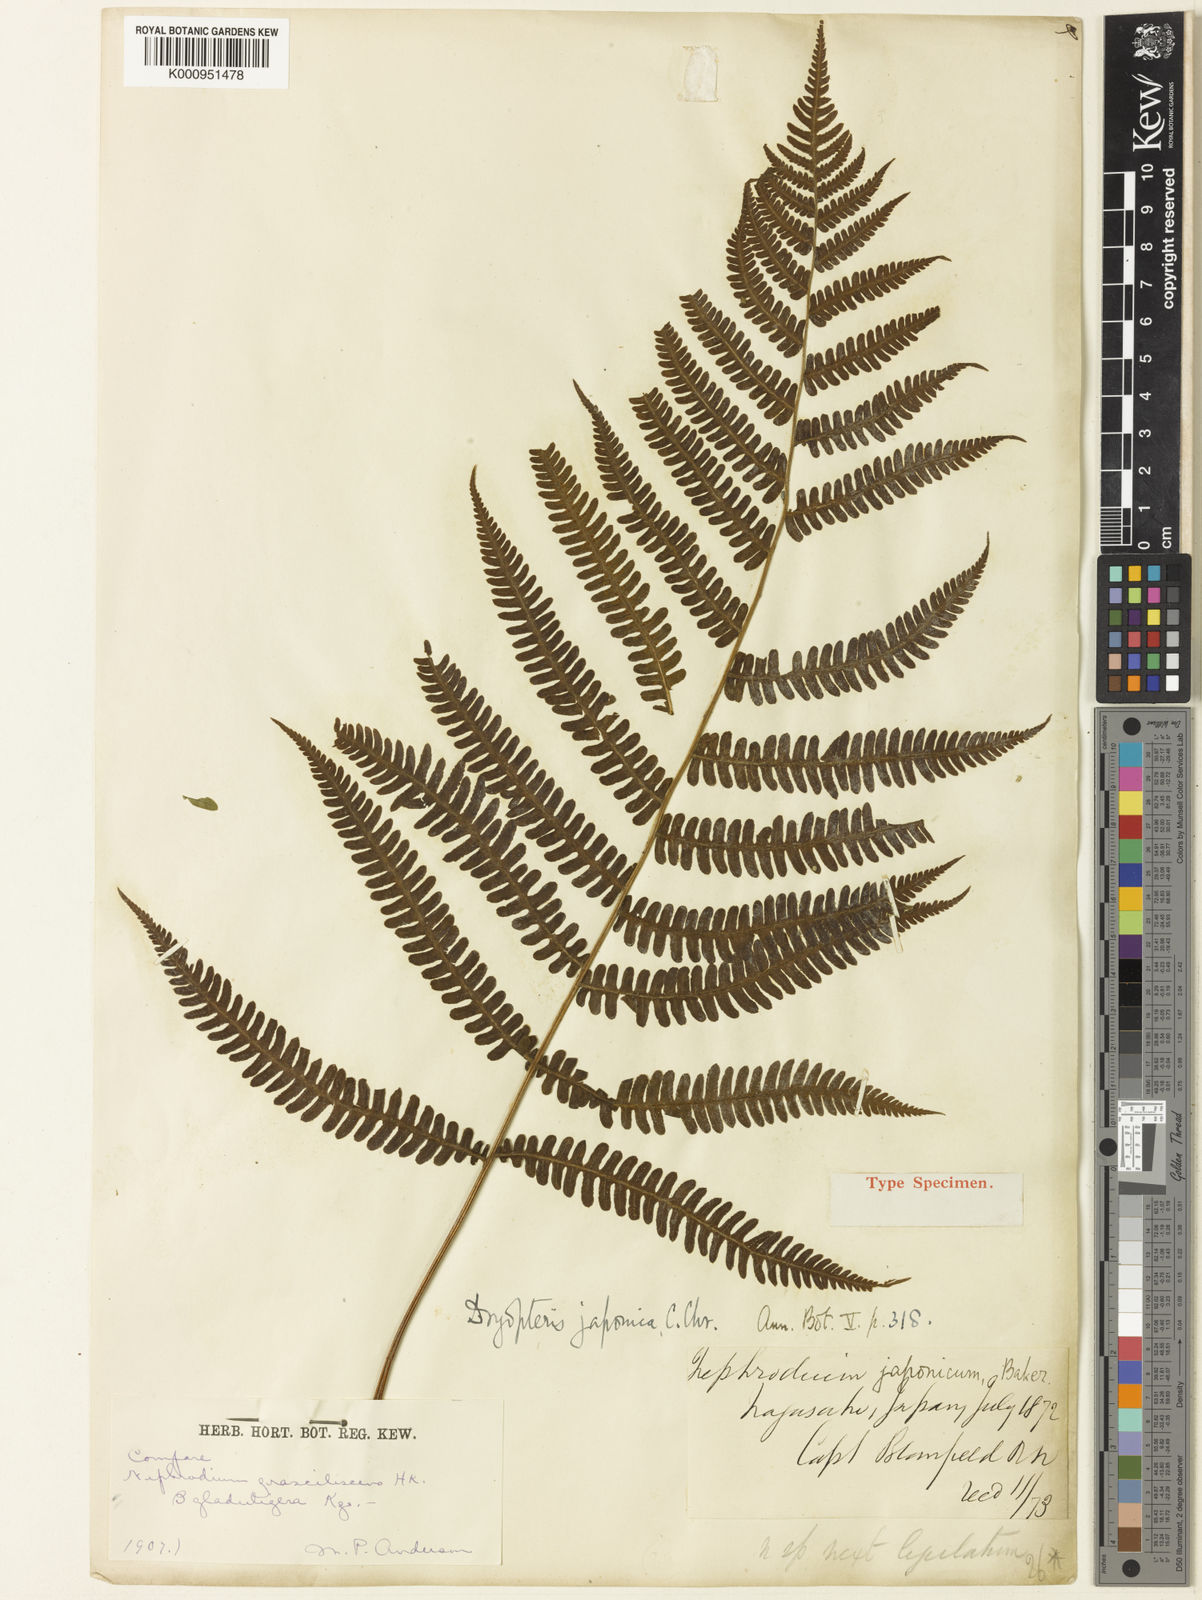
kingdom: Plantae
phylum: Tracheophyta
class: Polypodiopsida
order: Polypodiales
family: Thelypteridaceae
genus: Coryphopteris
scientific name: Coryphopteris japonica
